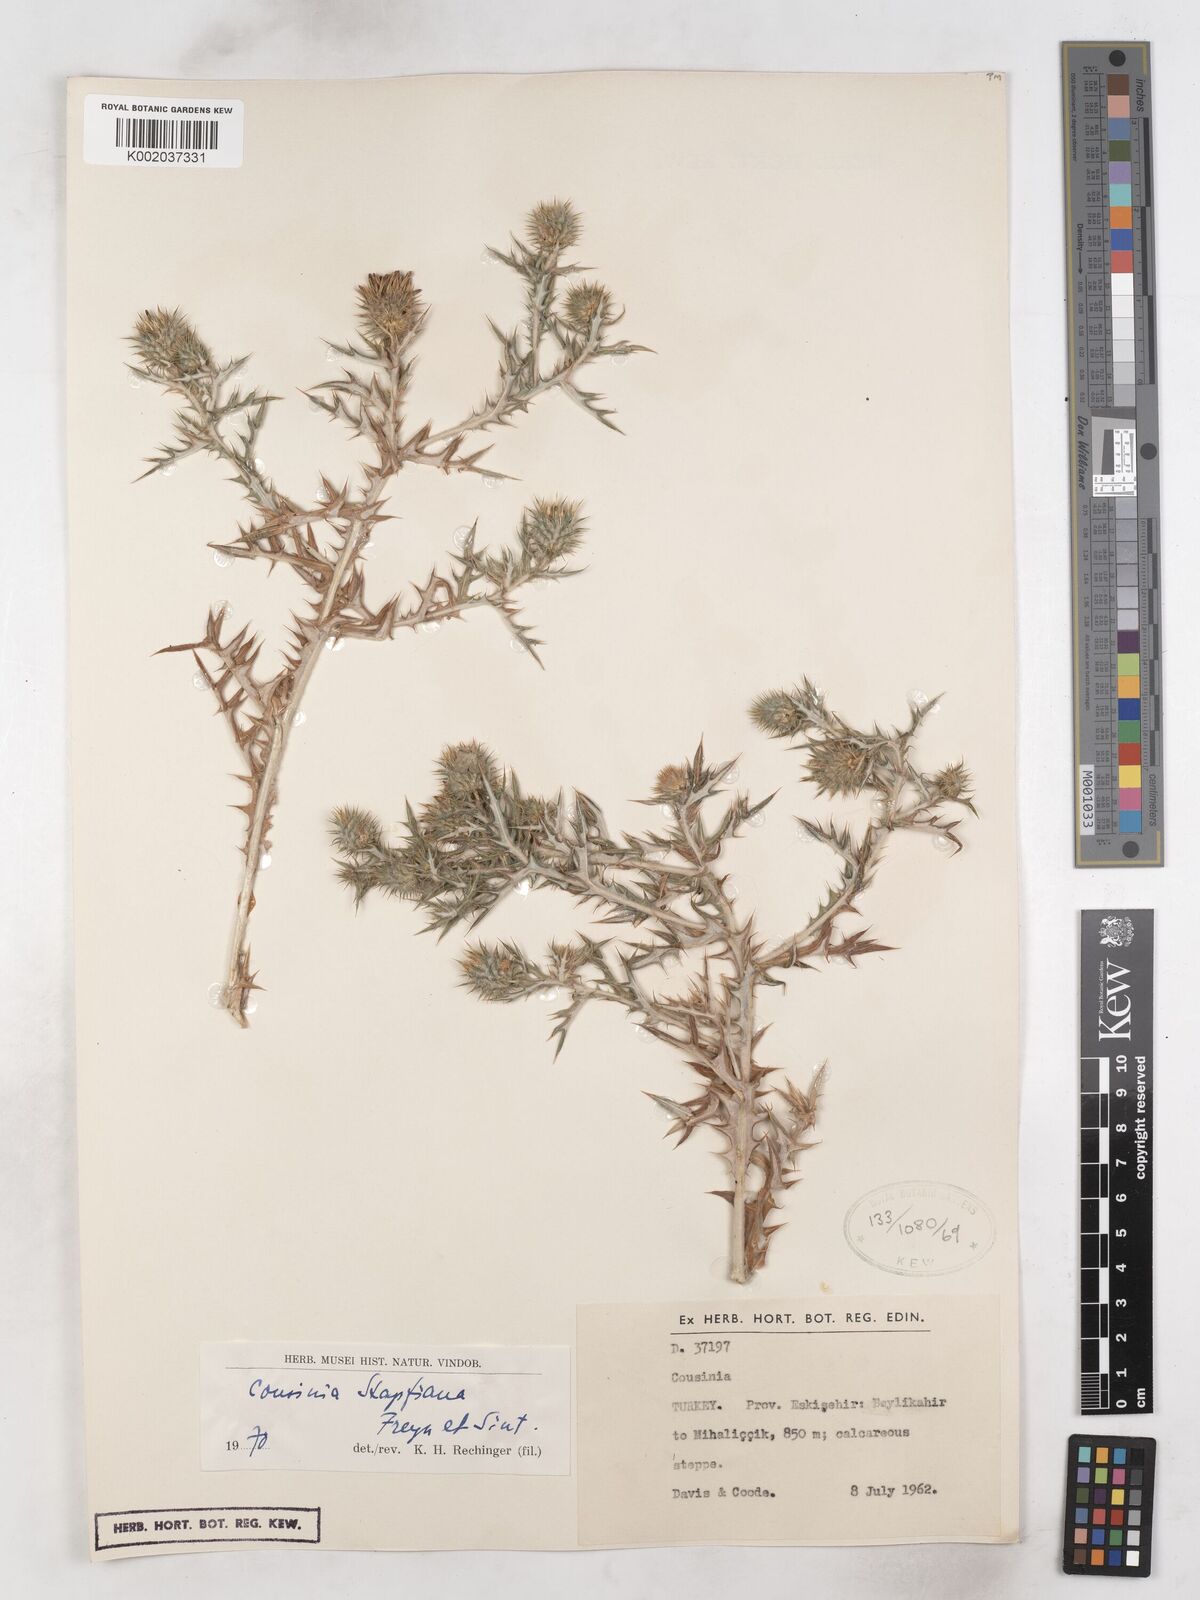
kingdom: Plantae
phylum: Tracheophyta
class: Magnoliopsida
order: Asterales
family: Asteraceae
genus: Cousinia
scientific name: Cousinia stapfiana
